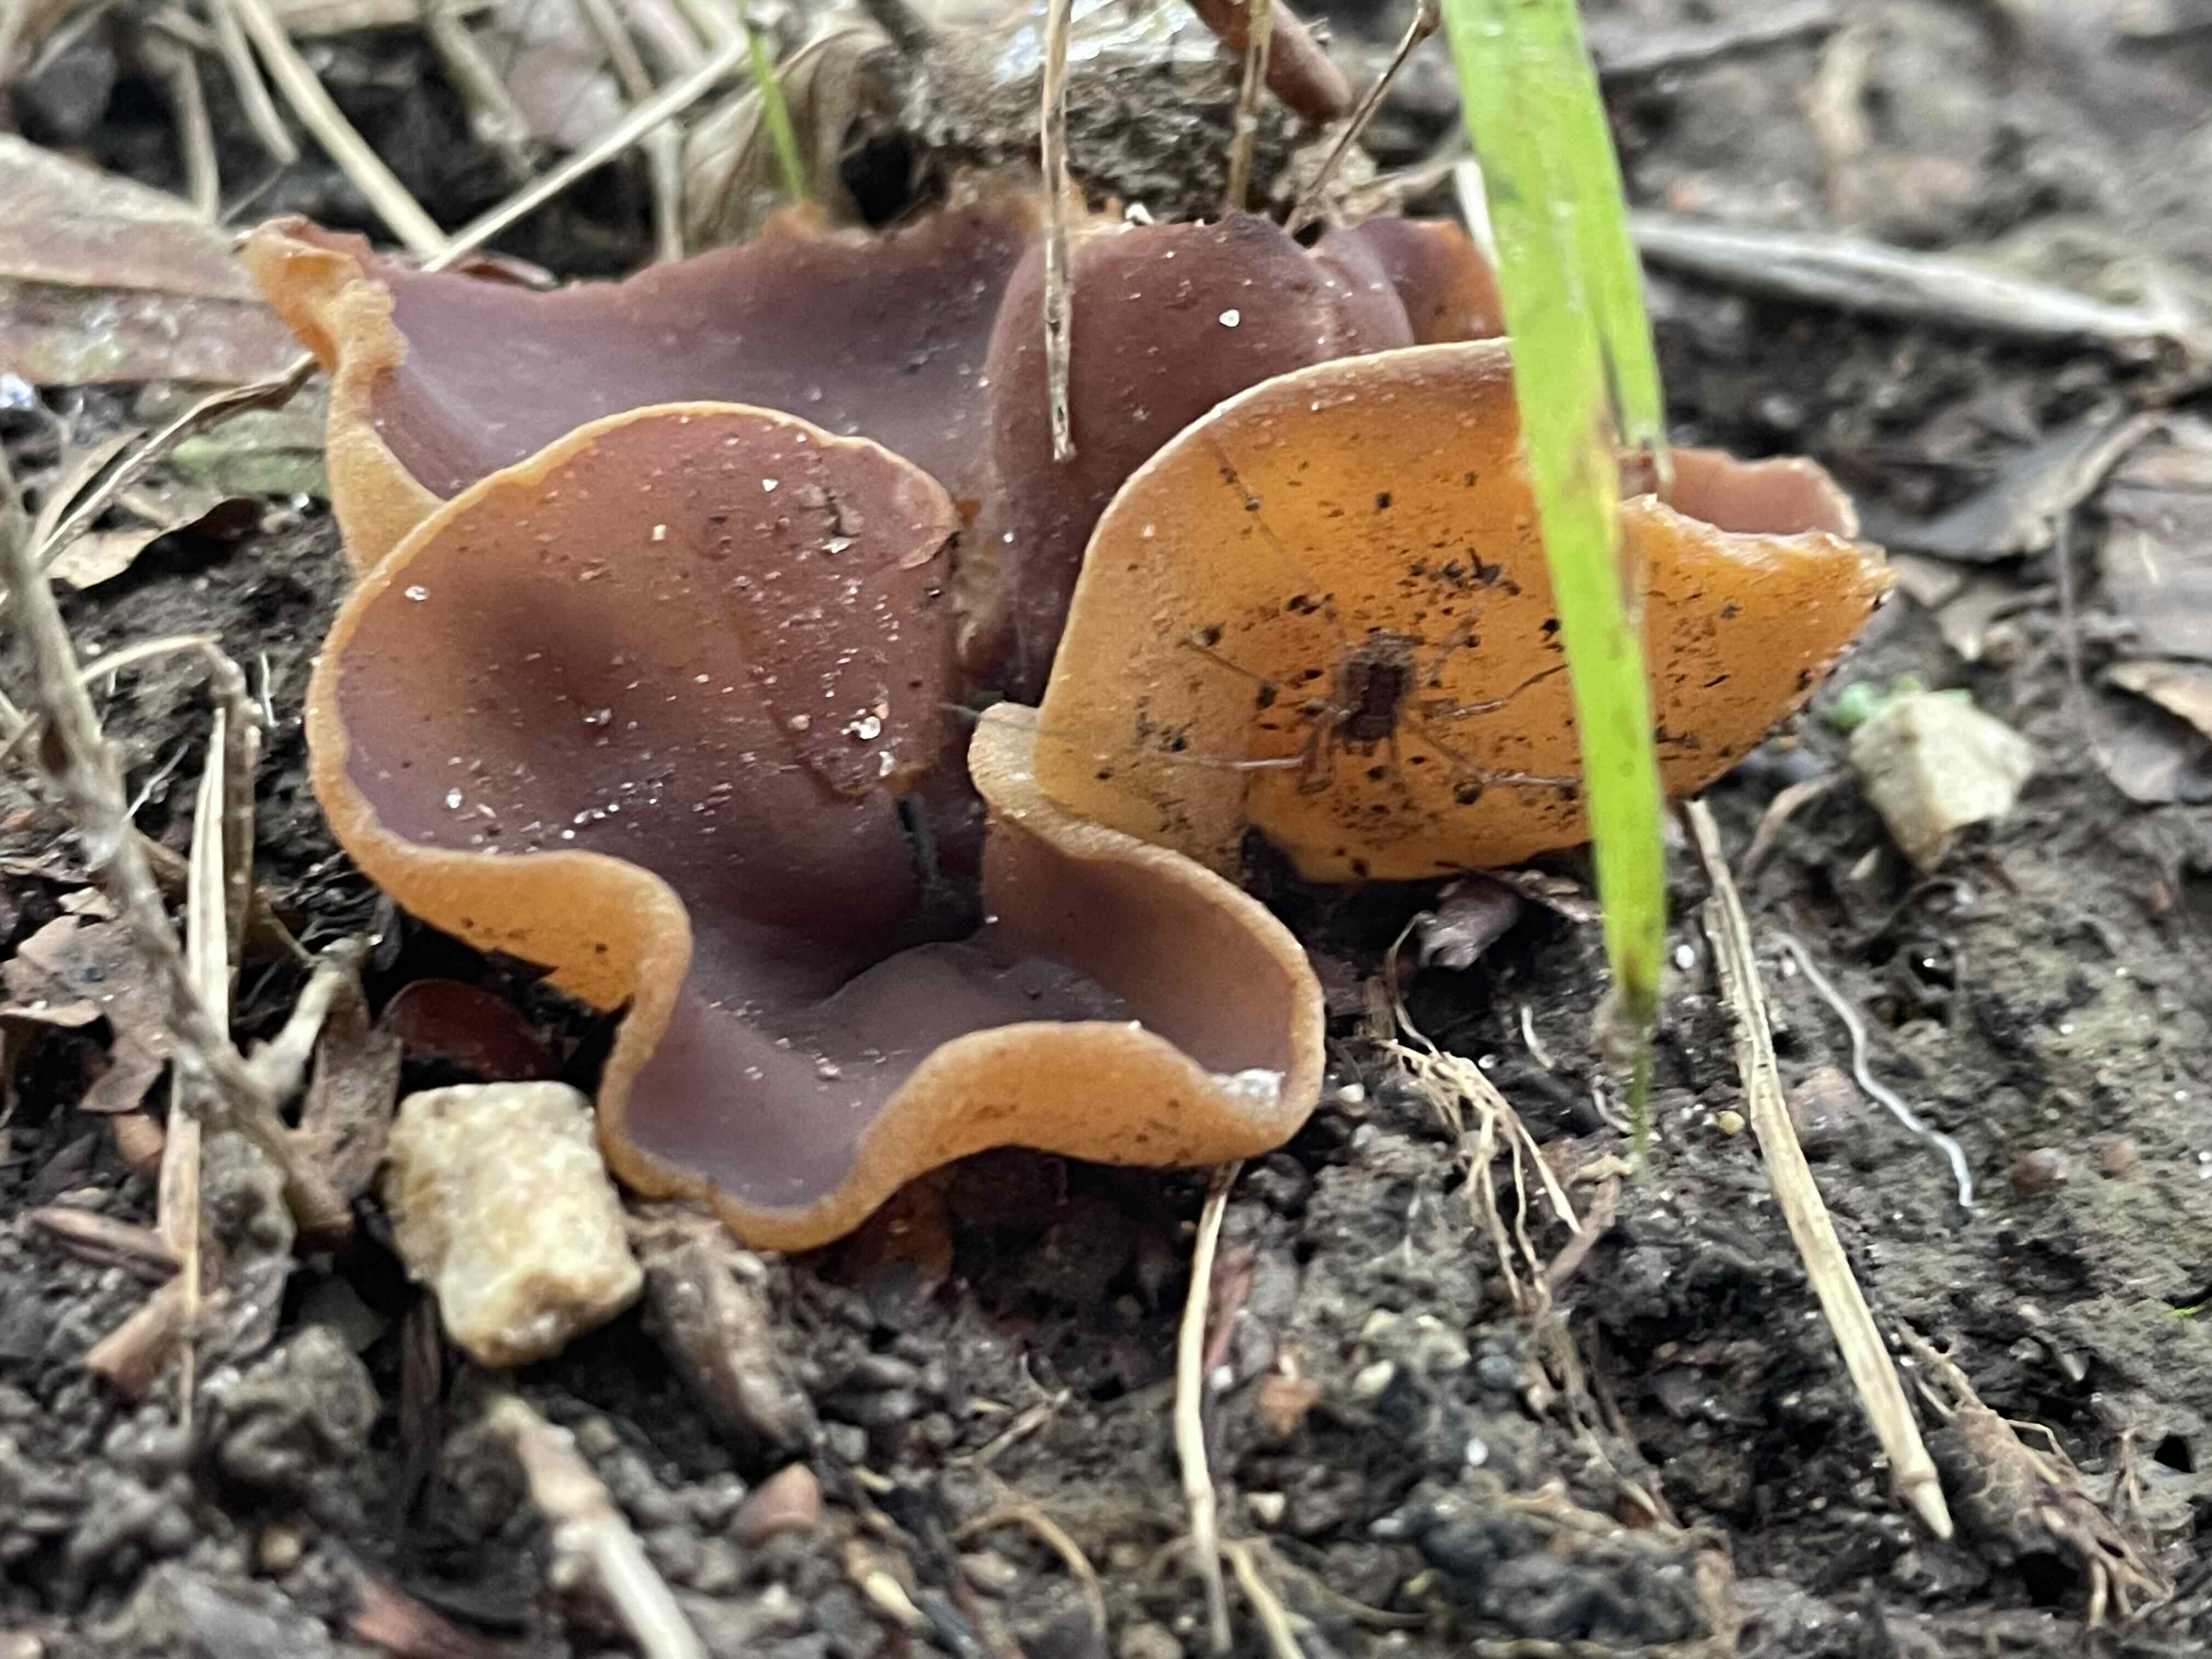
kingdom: Fungi
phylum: Ascomycota
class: Pezizomycetes
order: Pezizales
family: Pezizaceae
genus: Paragalactinia
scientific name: Paragalactinia michelii
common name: gulkødet bægersvamp
